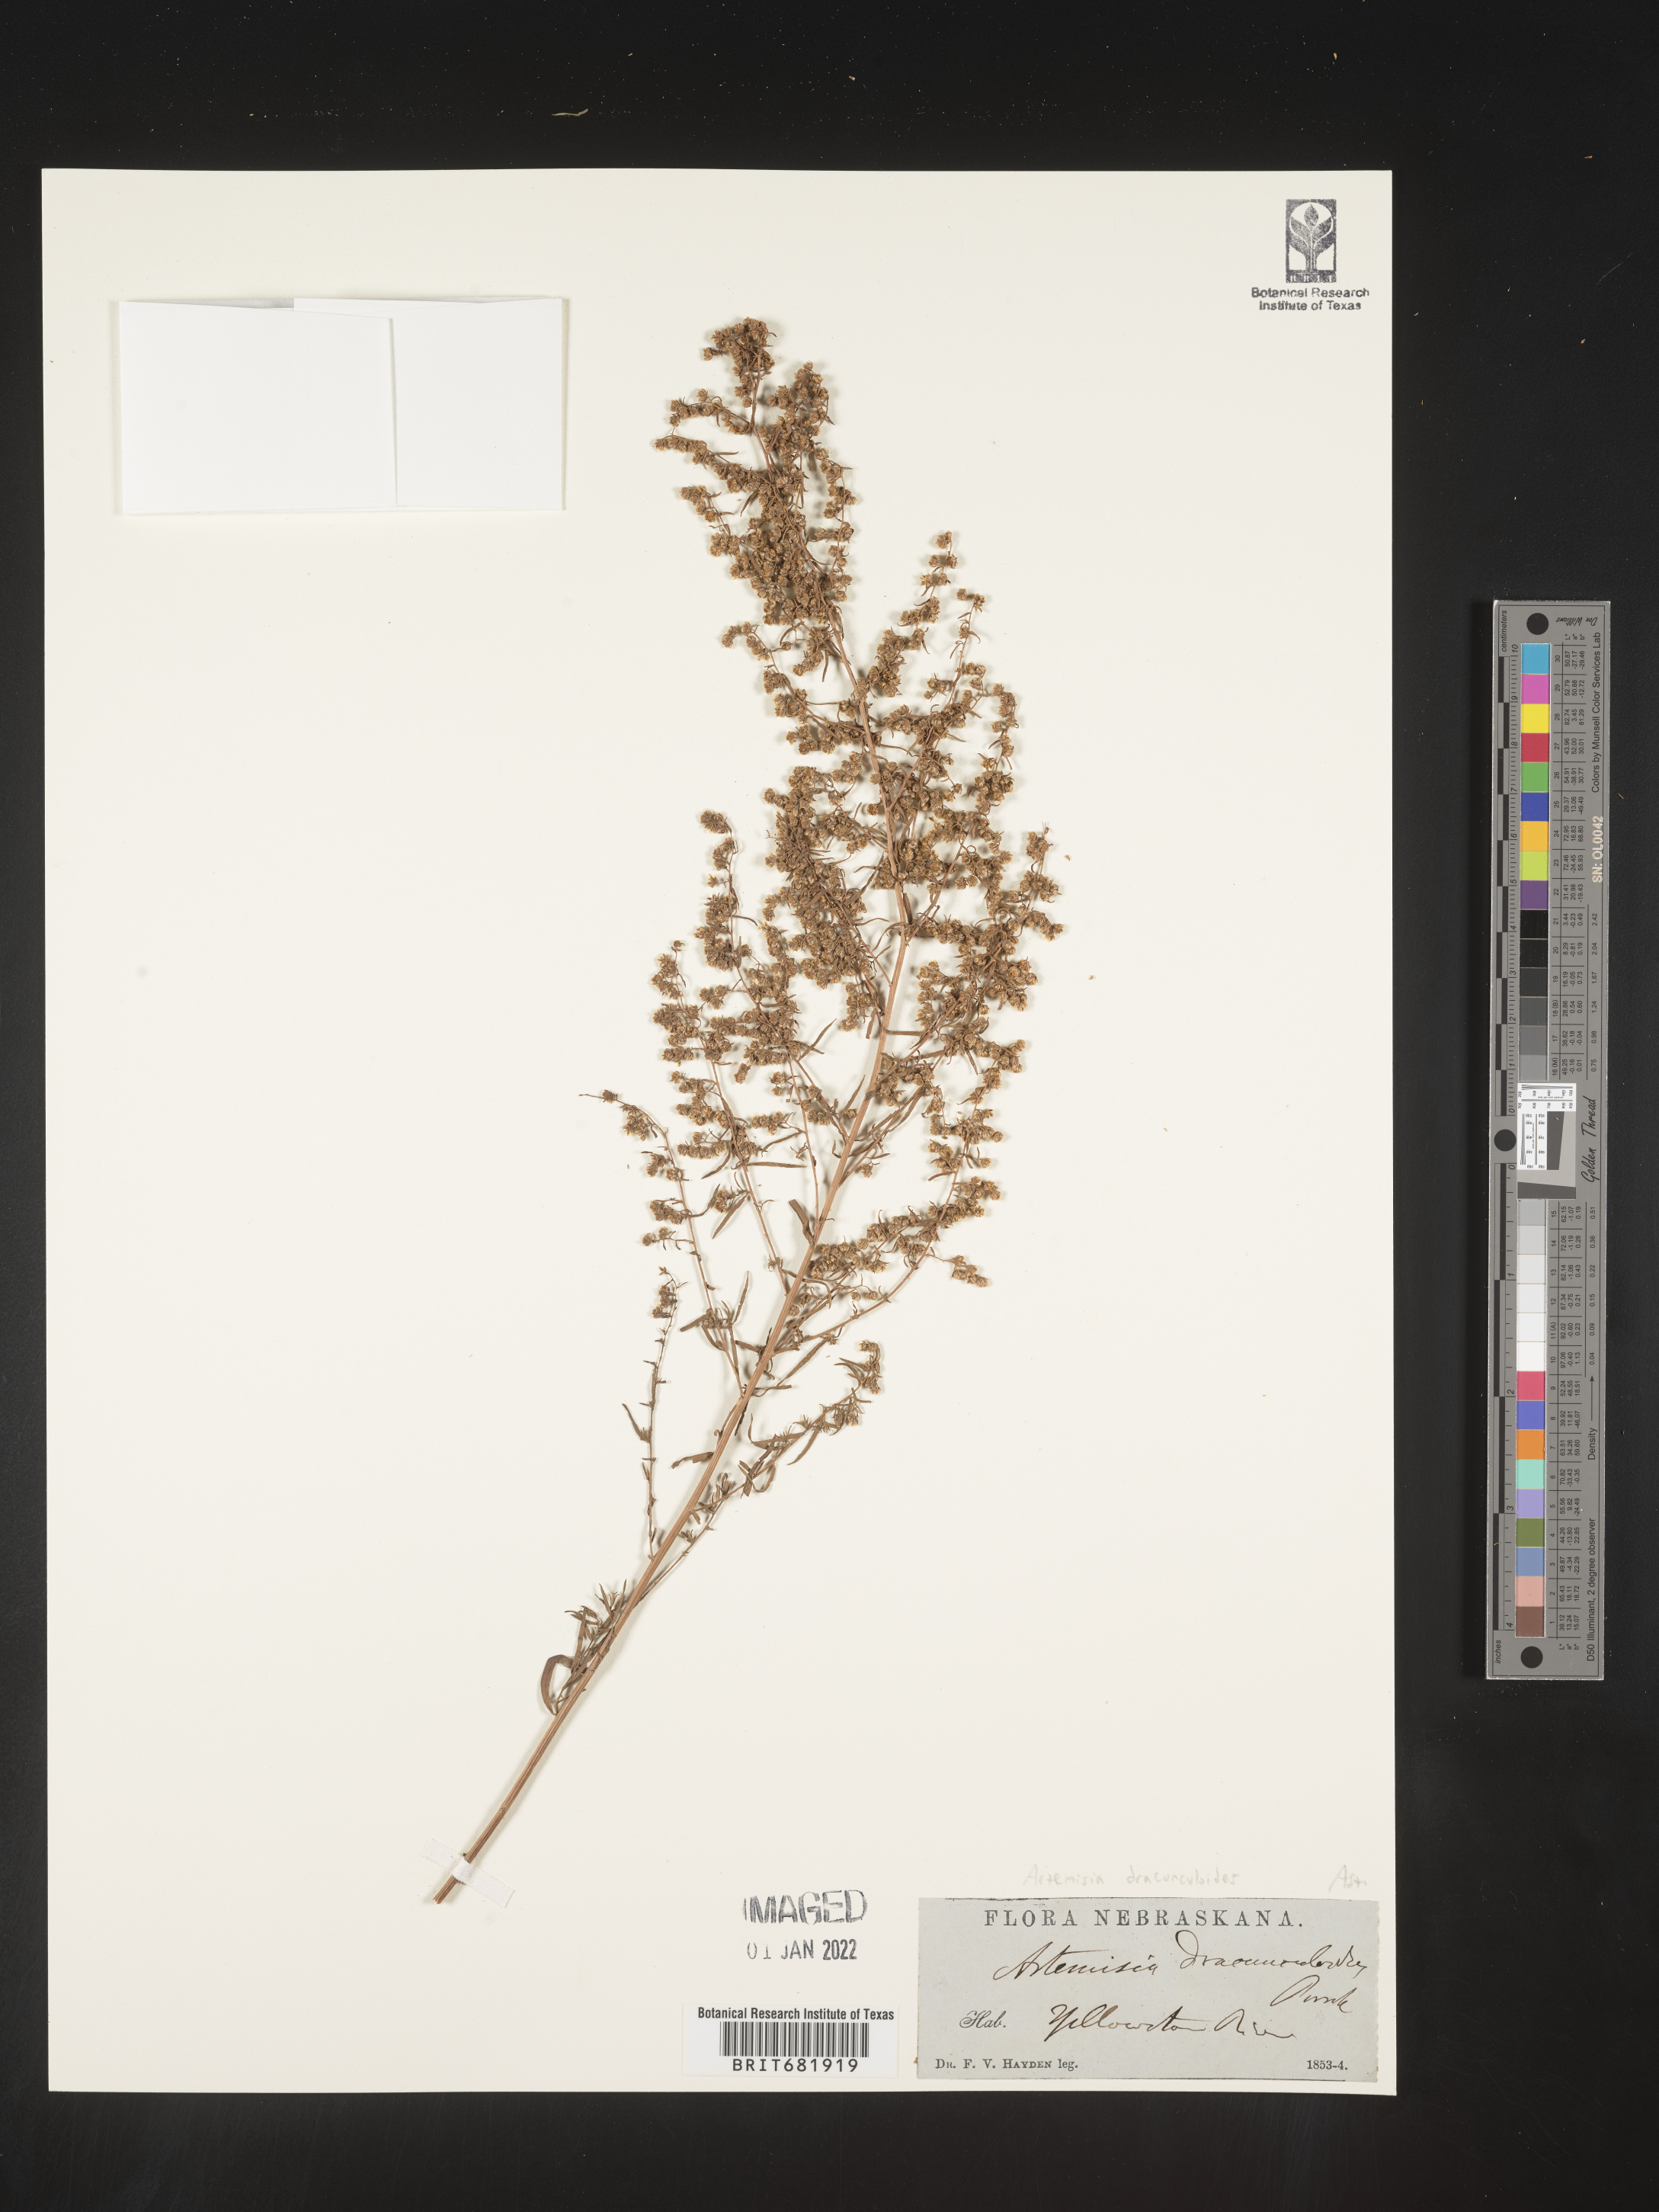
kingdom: Plantae
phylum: Tracheophyta
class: Magnoliopsida
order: Asterales
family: Asteraceae
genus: Artemisia
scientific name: Artemisia dracunculus
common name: Tarragon
